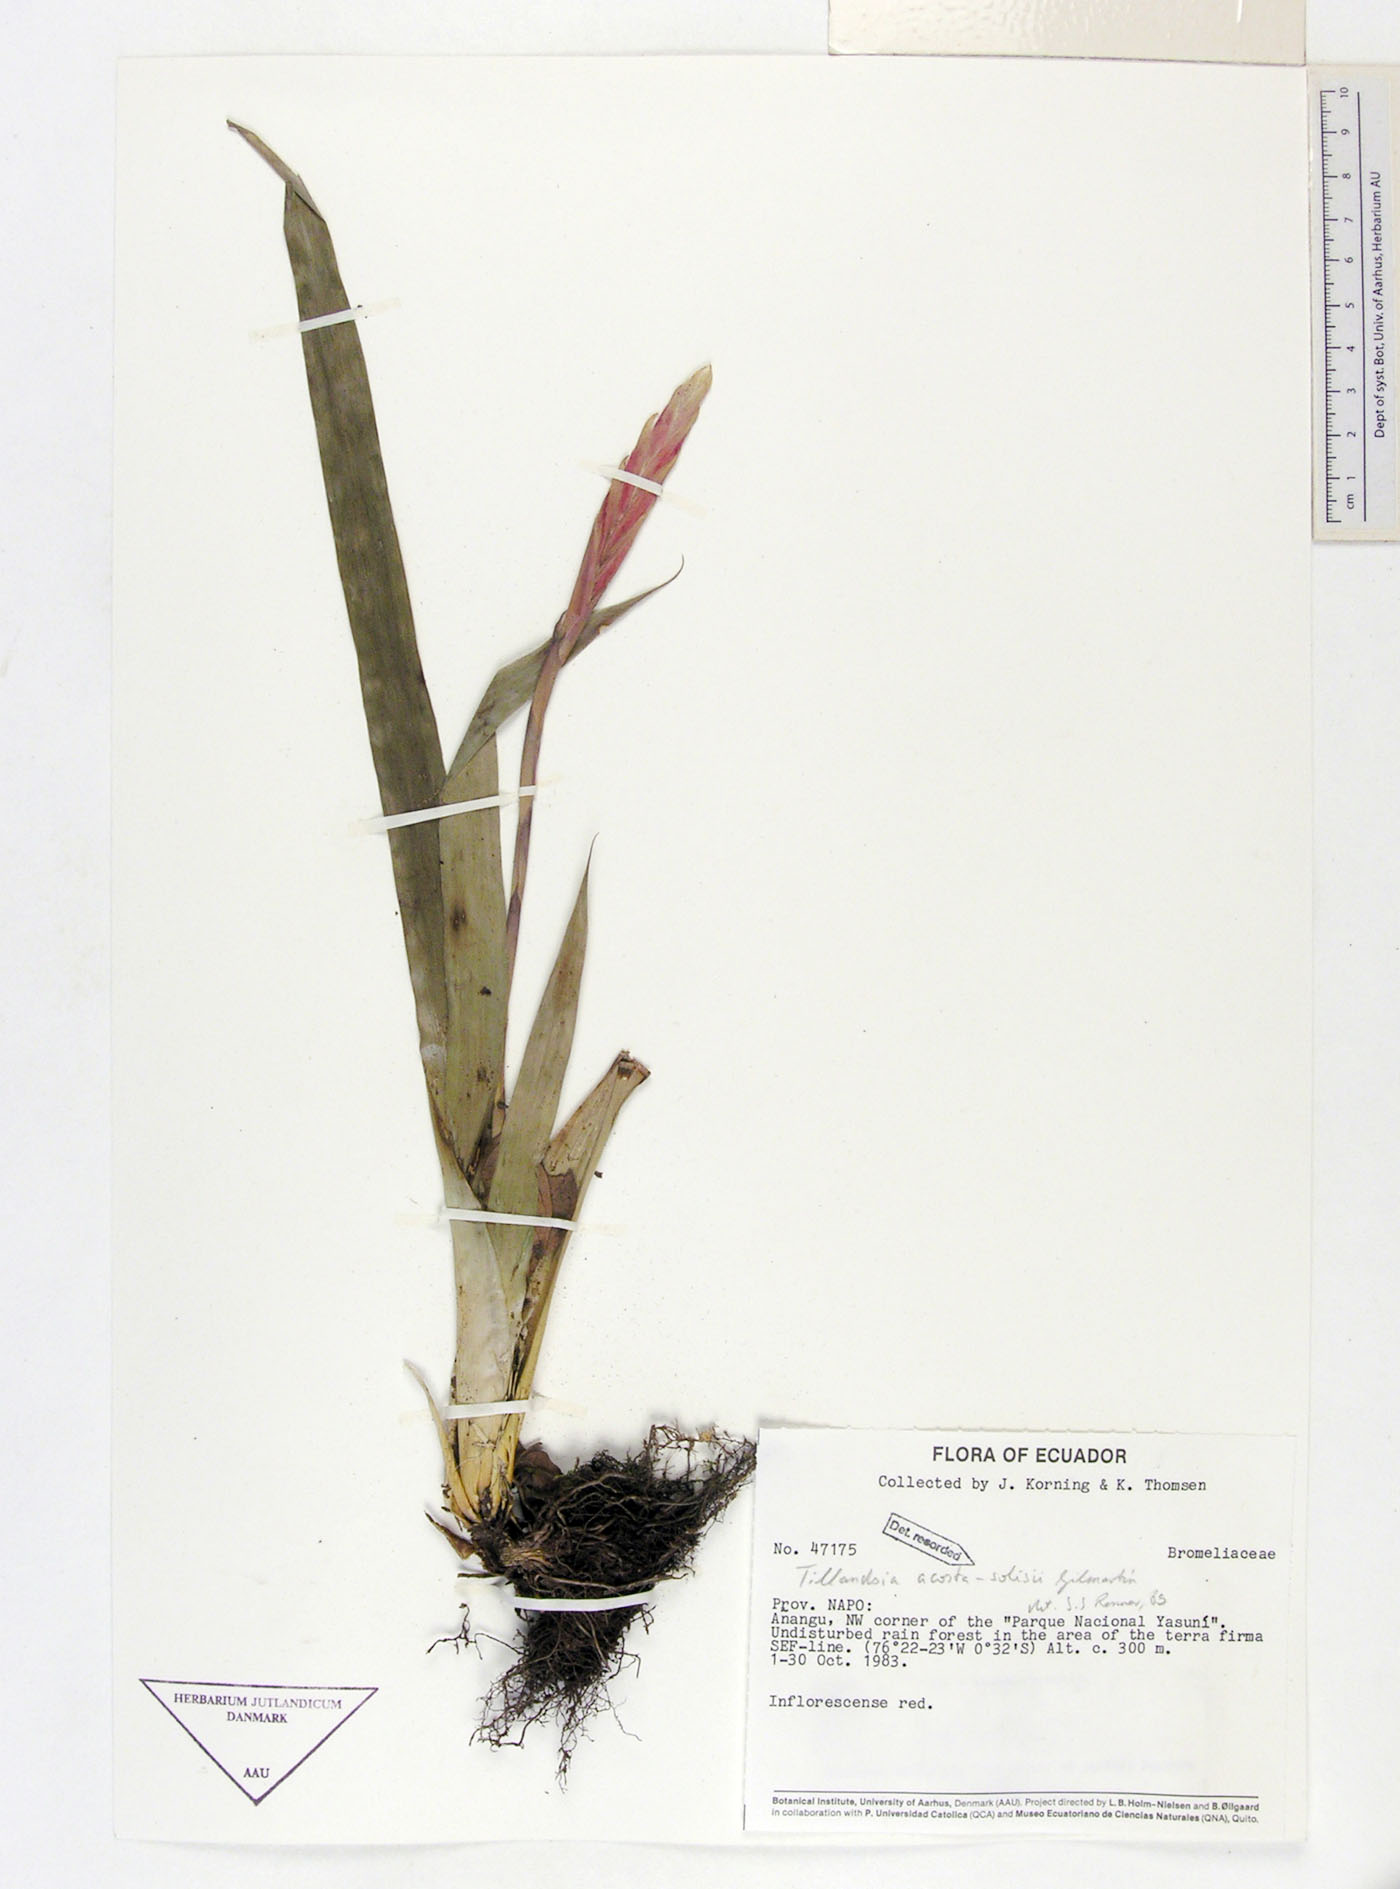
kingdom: Plantae
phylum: Tracheophyta
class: Liliopsida
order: Poales
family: Bromeliaceae
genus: Lemeltonia
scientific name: Lemeltonia acosta-solisii
